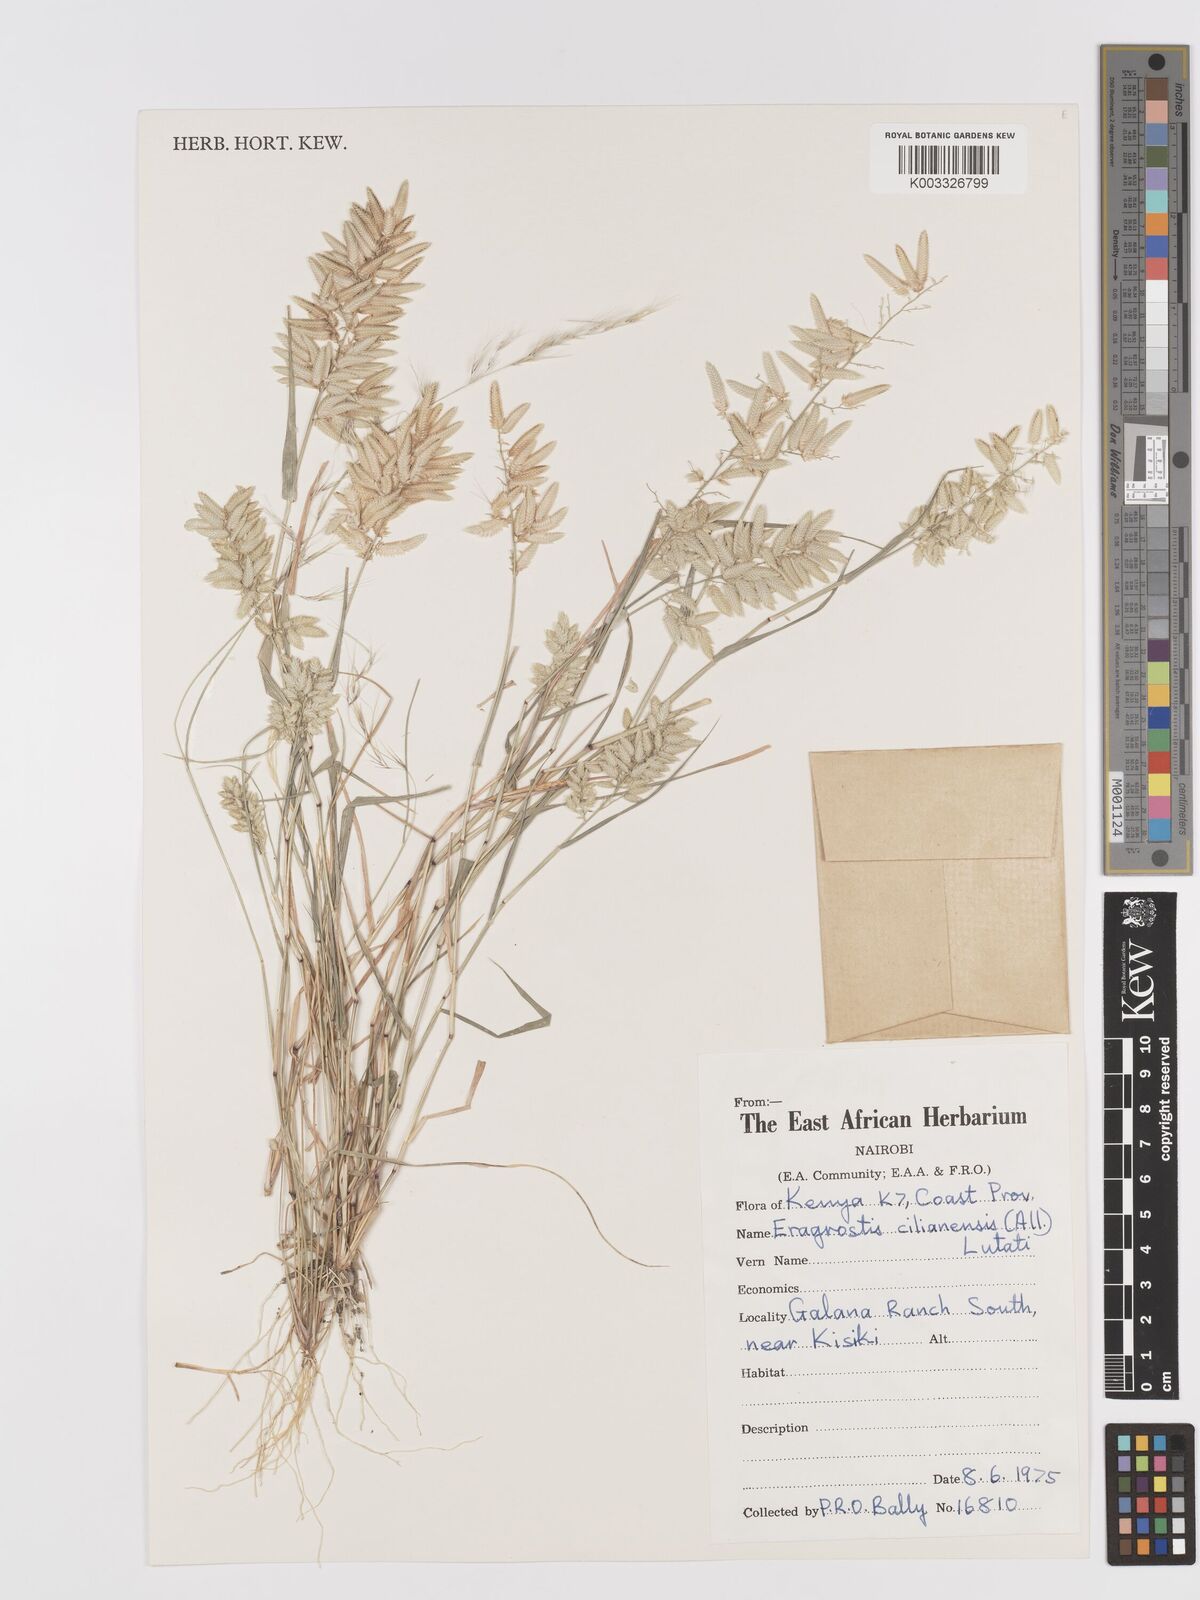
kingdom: Plantae
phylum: Tracheophyta
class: Liliopsida
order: Poales
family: Poaceae
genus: Eragrostis
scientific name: Eragrostis cilianensis
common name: Stinkgrass
